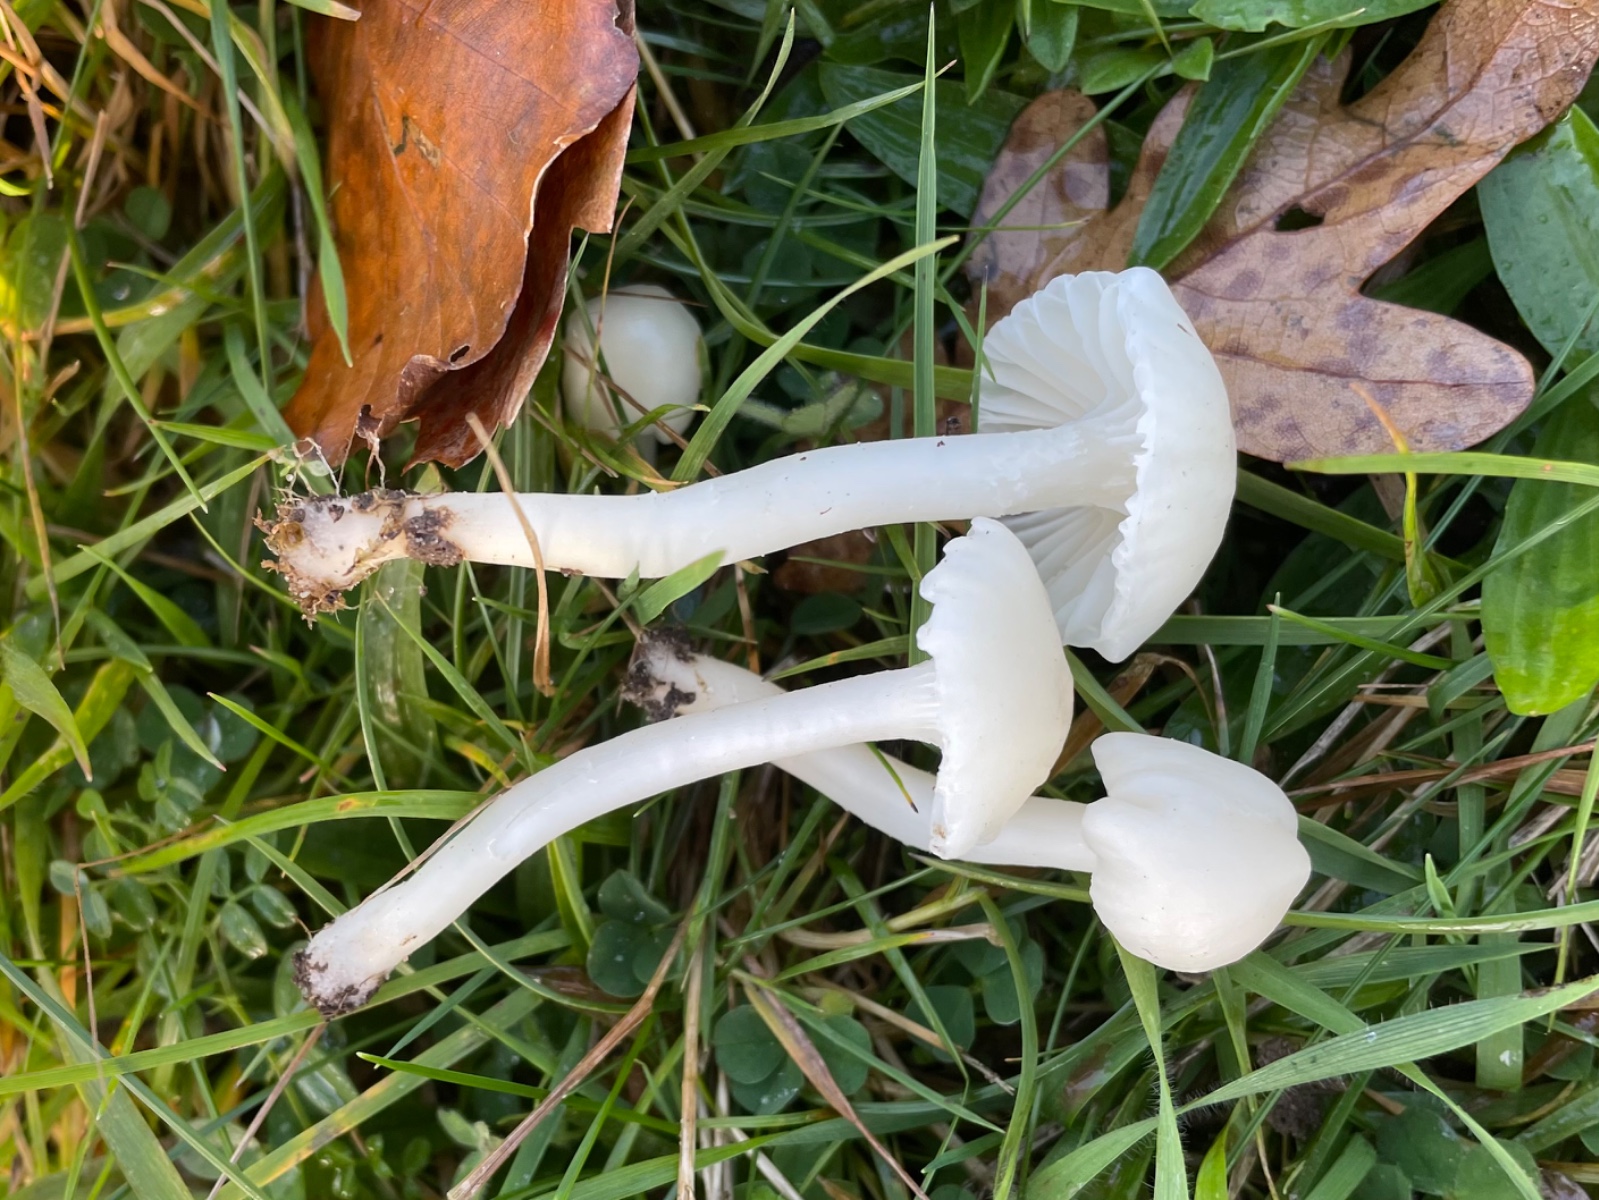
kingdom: Fungi
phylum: Basidiomycota
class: Agaricomycetes
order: Agaricales
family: Hygrophoraceae
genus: Cuphophyllus
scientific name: Cuphophyllus virgineus
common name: snehvid vokshat
